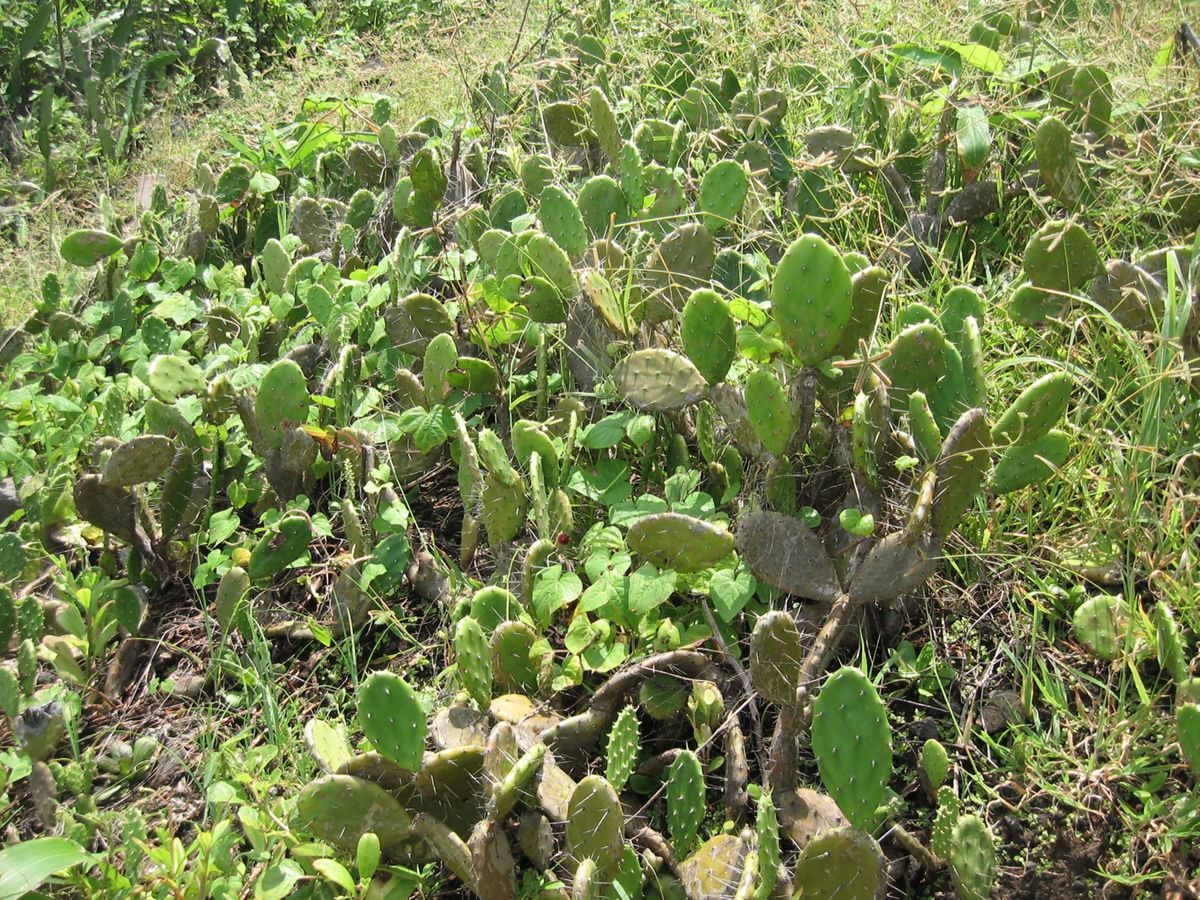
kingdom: Plantae
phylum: Tracheophyta
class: Magnoliopsida
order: Caryophyllales
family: Cactaceae
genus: Opuntia
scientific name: Opuntia caracassana
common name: Common prickly pear
